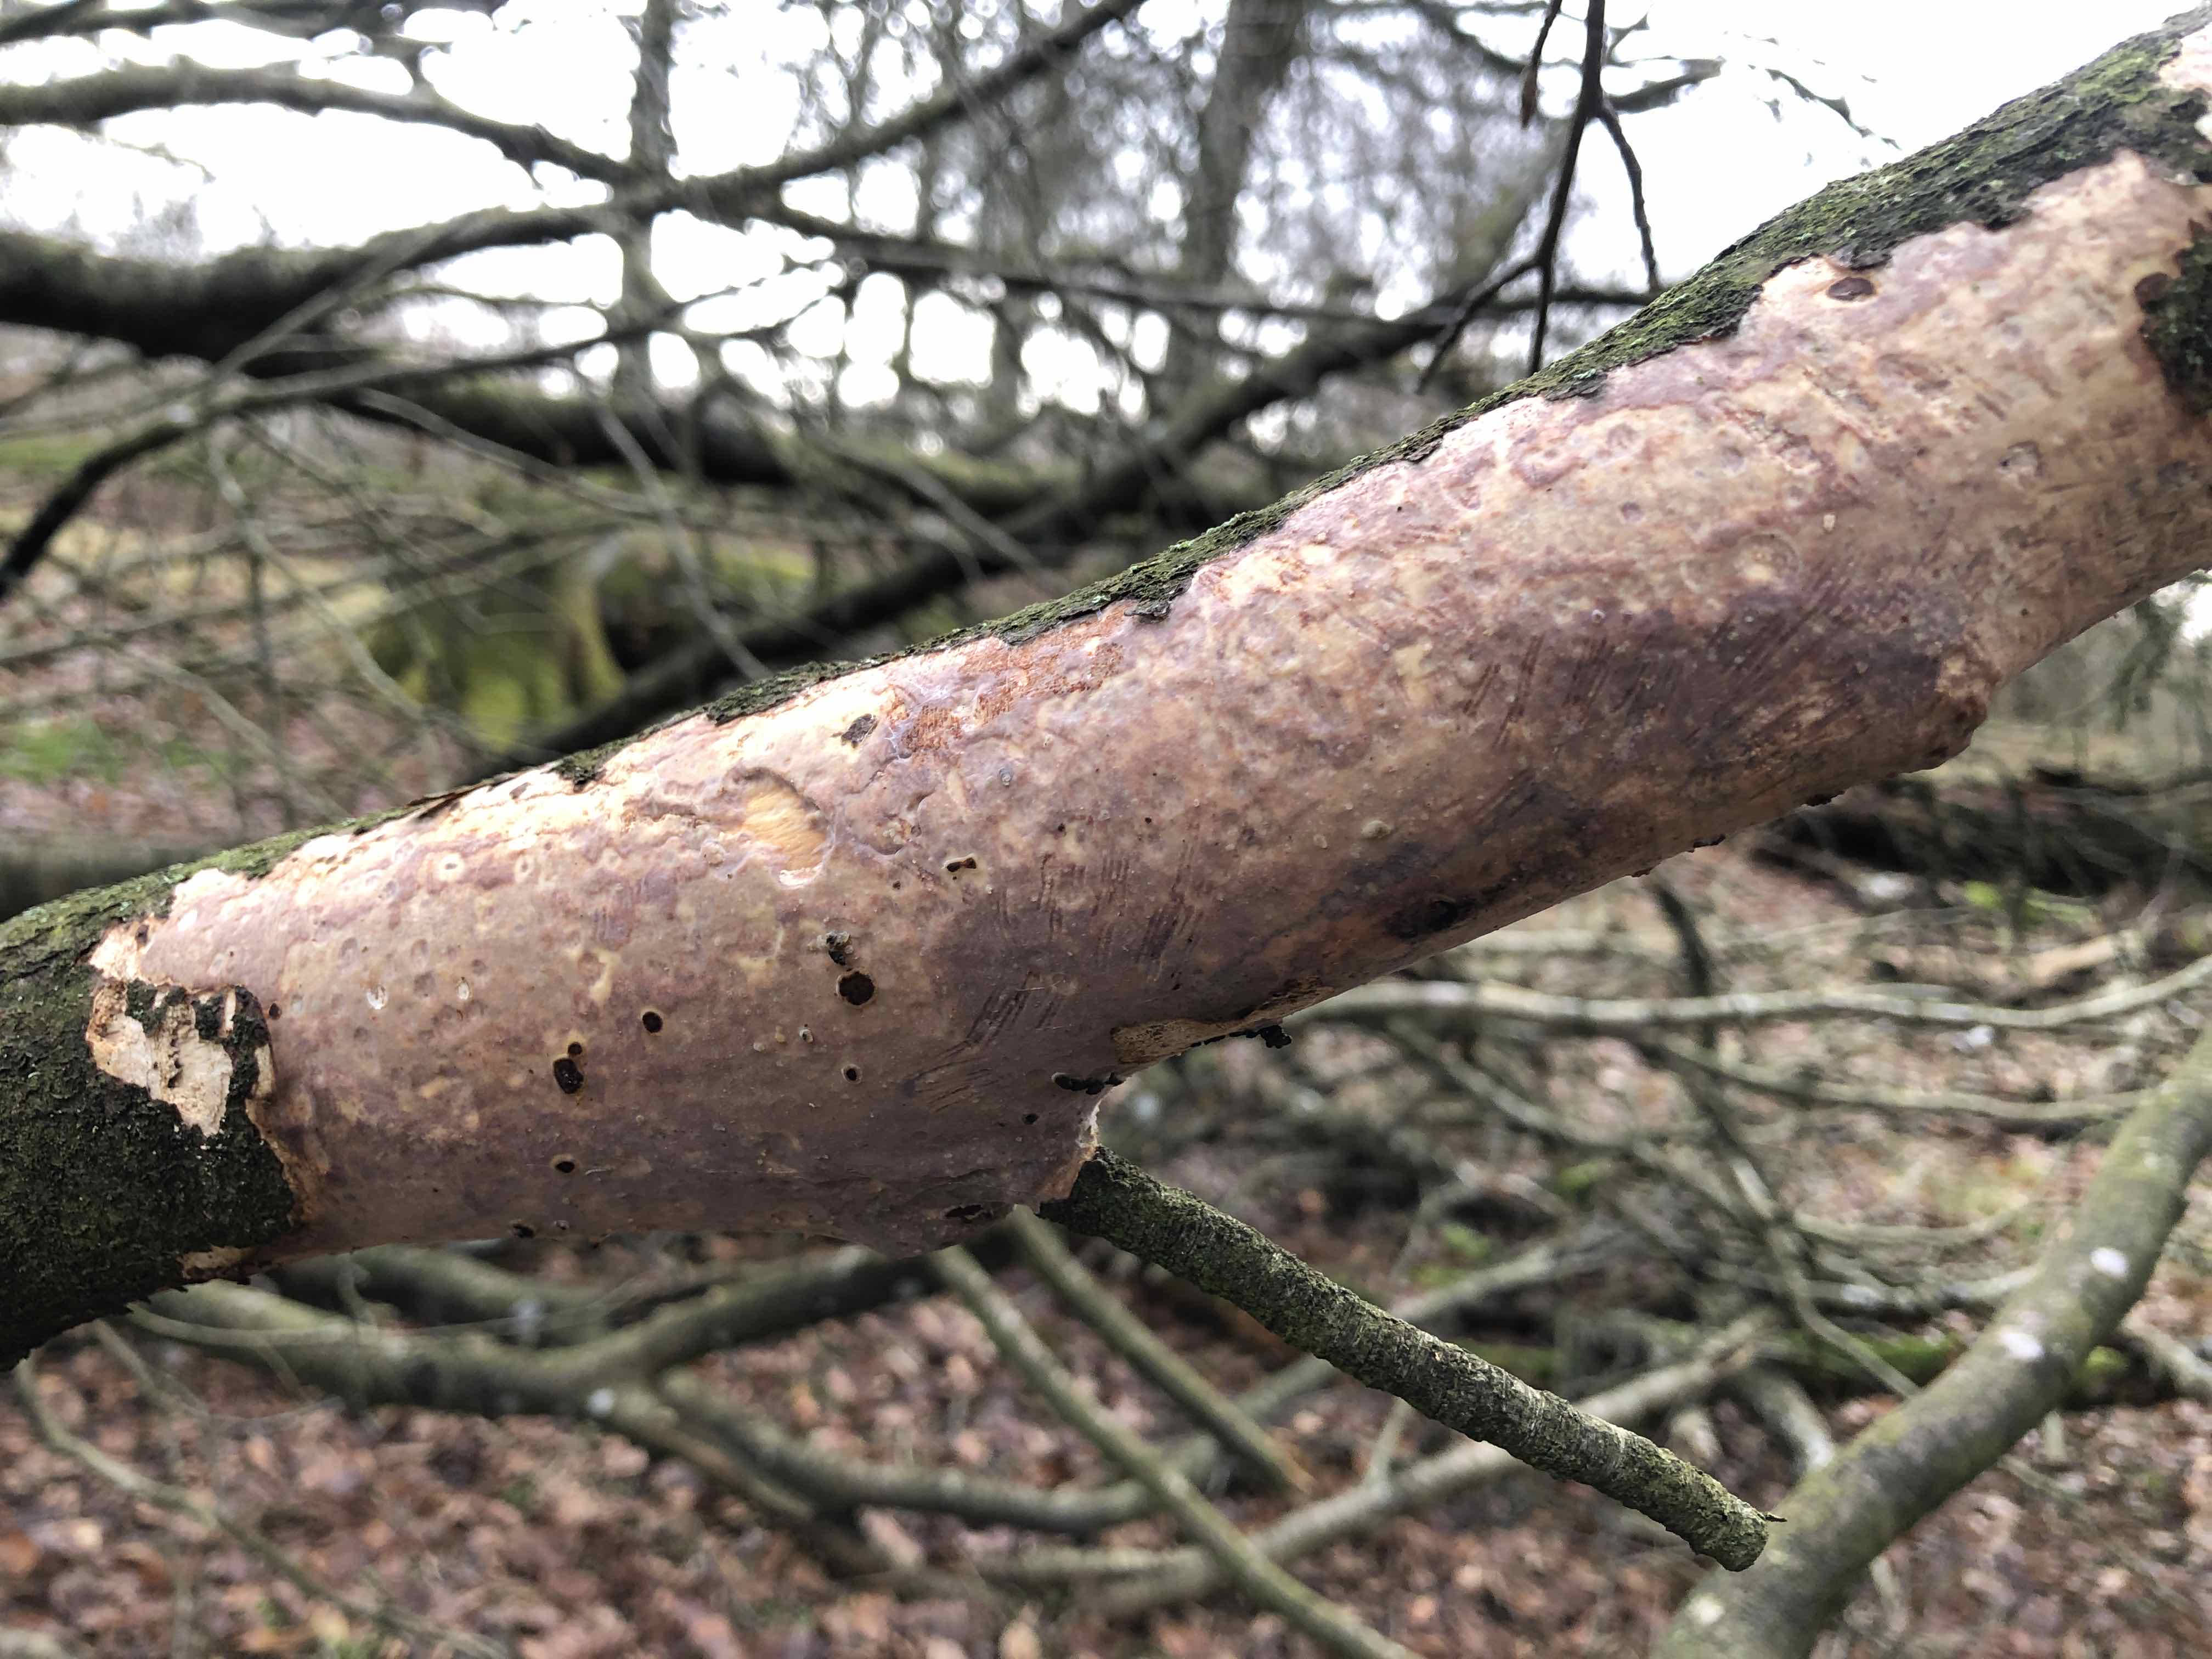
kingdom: Fungi
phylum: Basidiomycota
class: Agaricomycetes
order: Corticiales
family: Vuilleminiaceae
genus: Vuilleminia
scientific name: Vuilleminia comedens
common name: almindelig barksprænger
